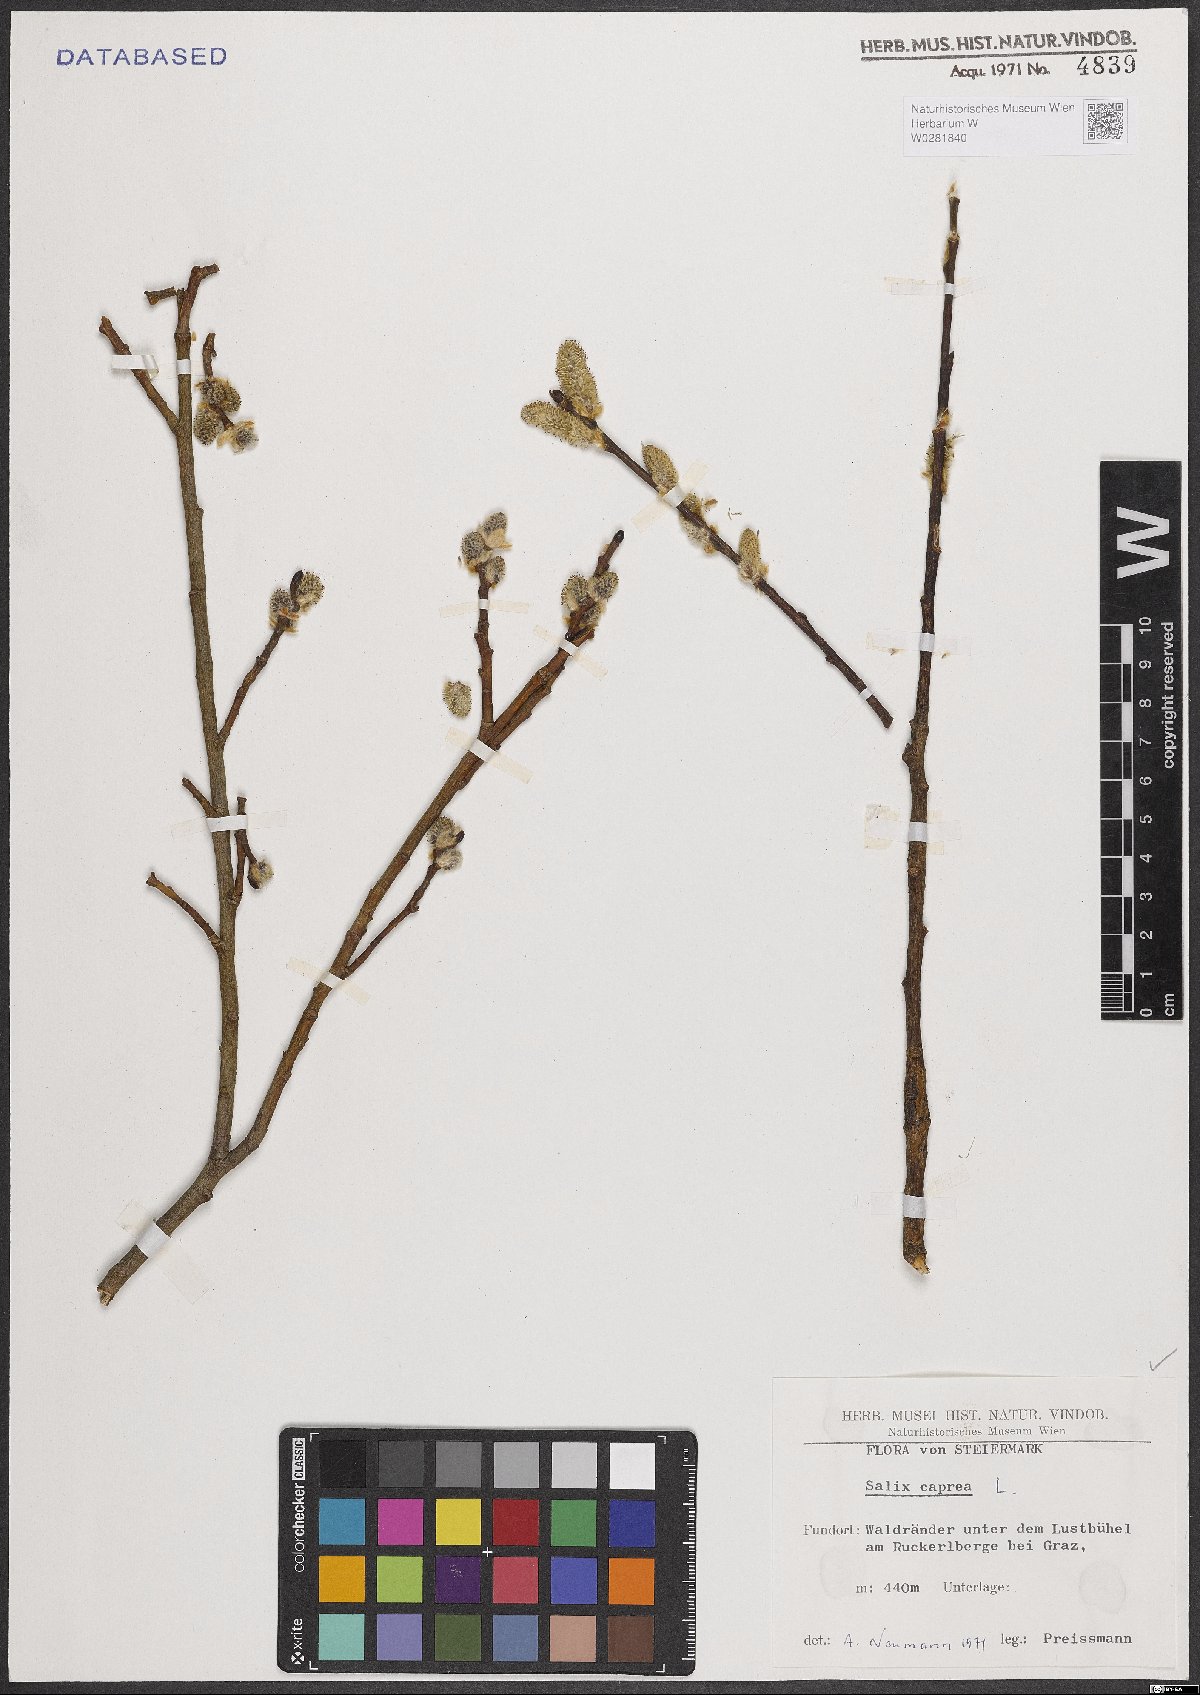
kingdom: Plantae
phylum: Tracheophyta
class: Magnoliopsida
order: Malpighiales
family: Salicaceae
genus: Salix
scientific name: Salix caprea
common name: Goat willow
